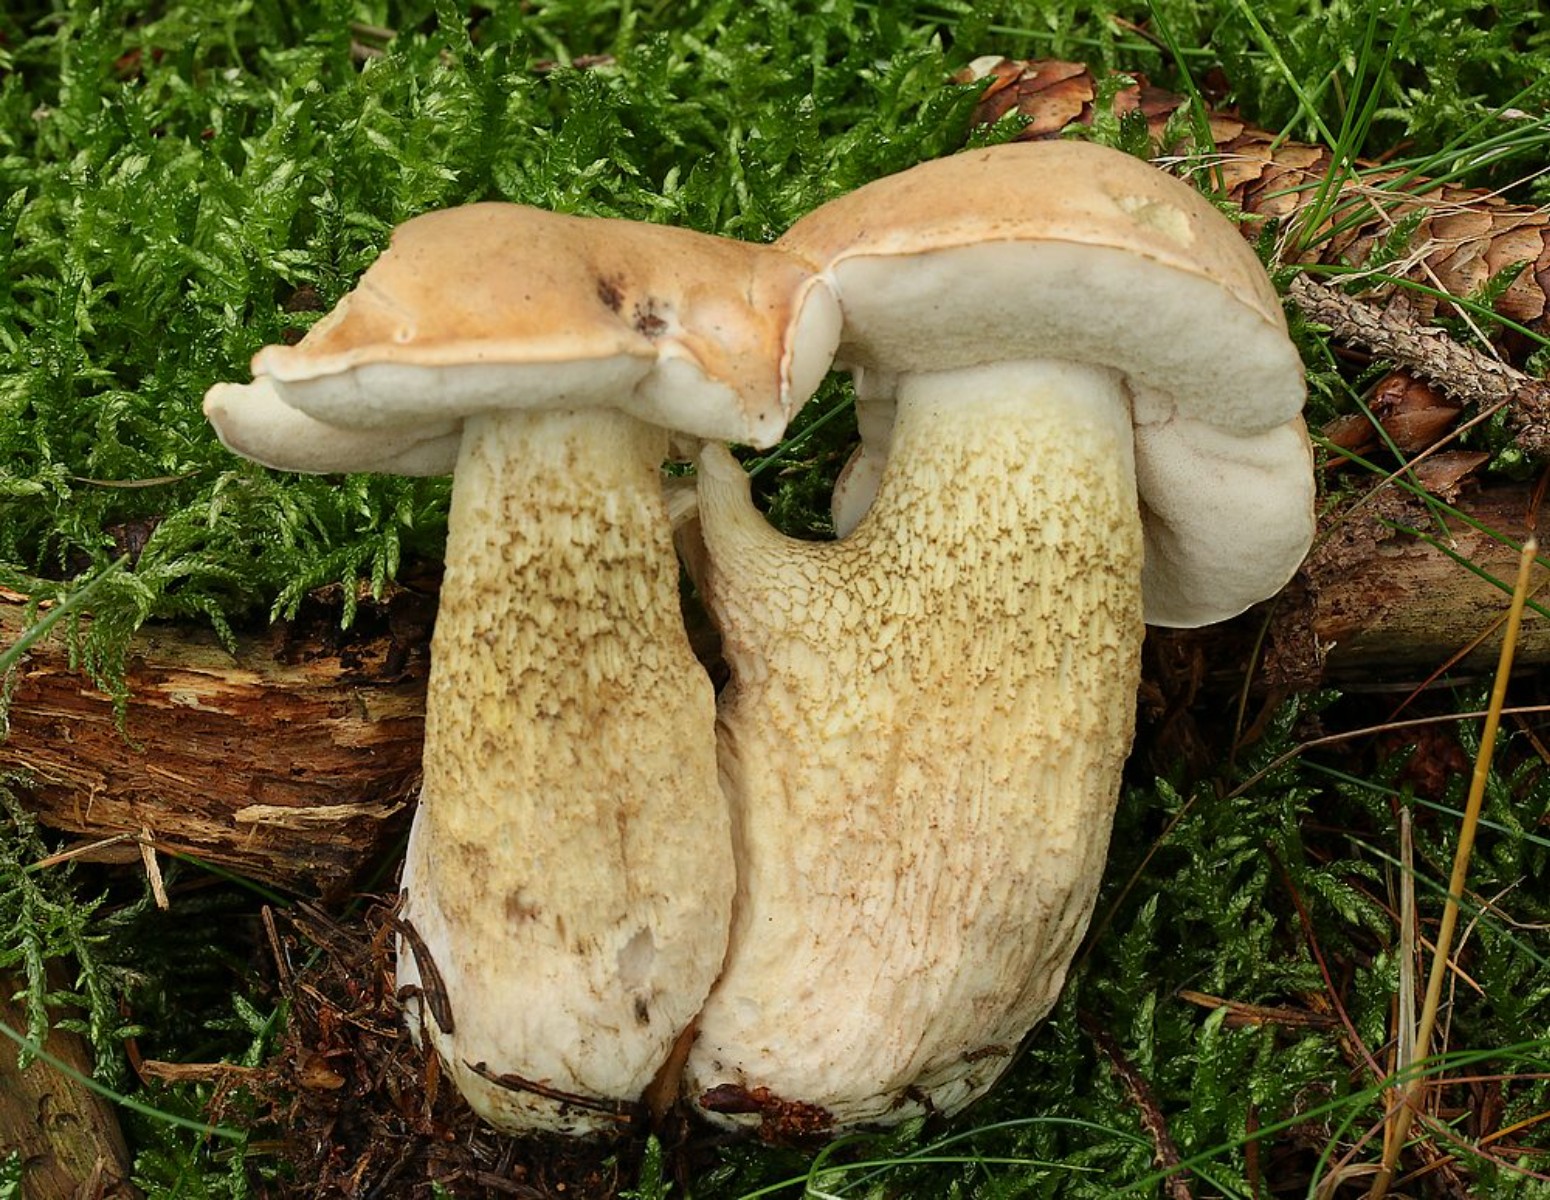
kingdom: Fungi
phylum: Basidiomycota
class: Agaricomycetes
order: Boletales
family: Boletaceae
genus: Tylopilus
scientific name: Tylopilus felleus
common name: galderørhat
